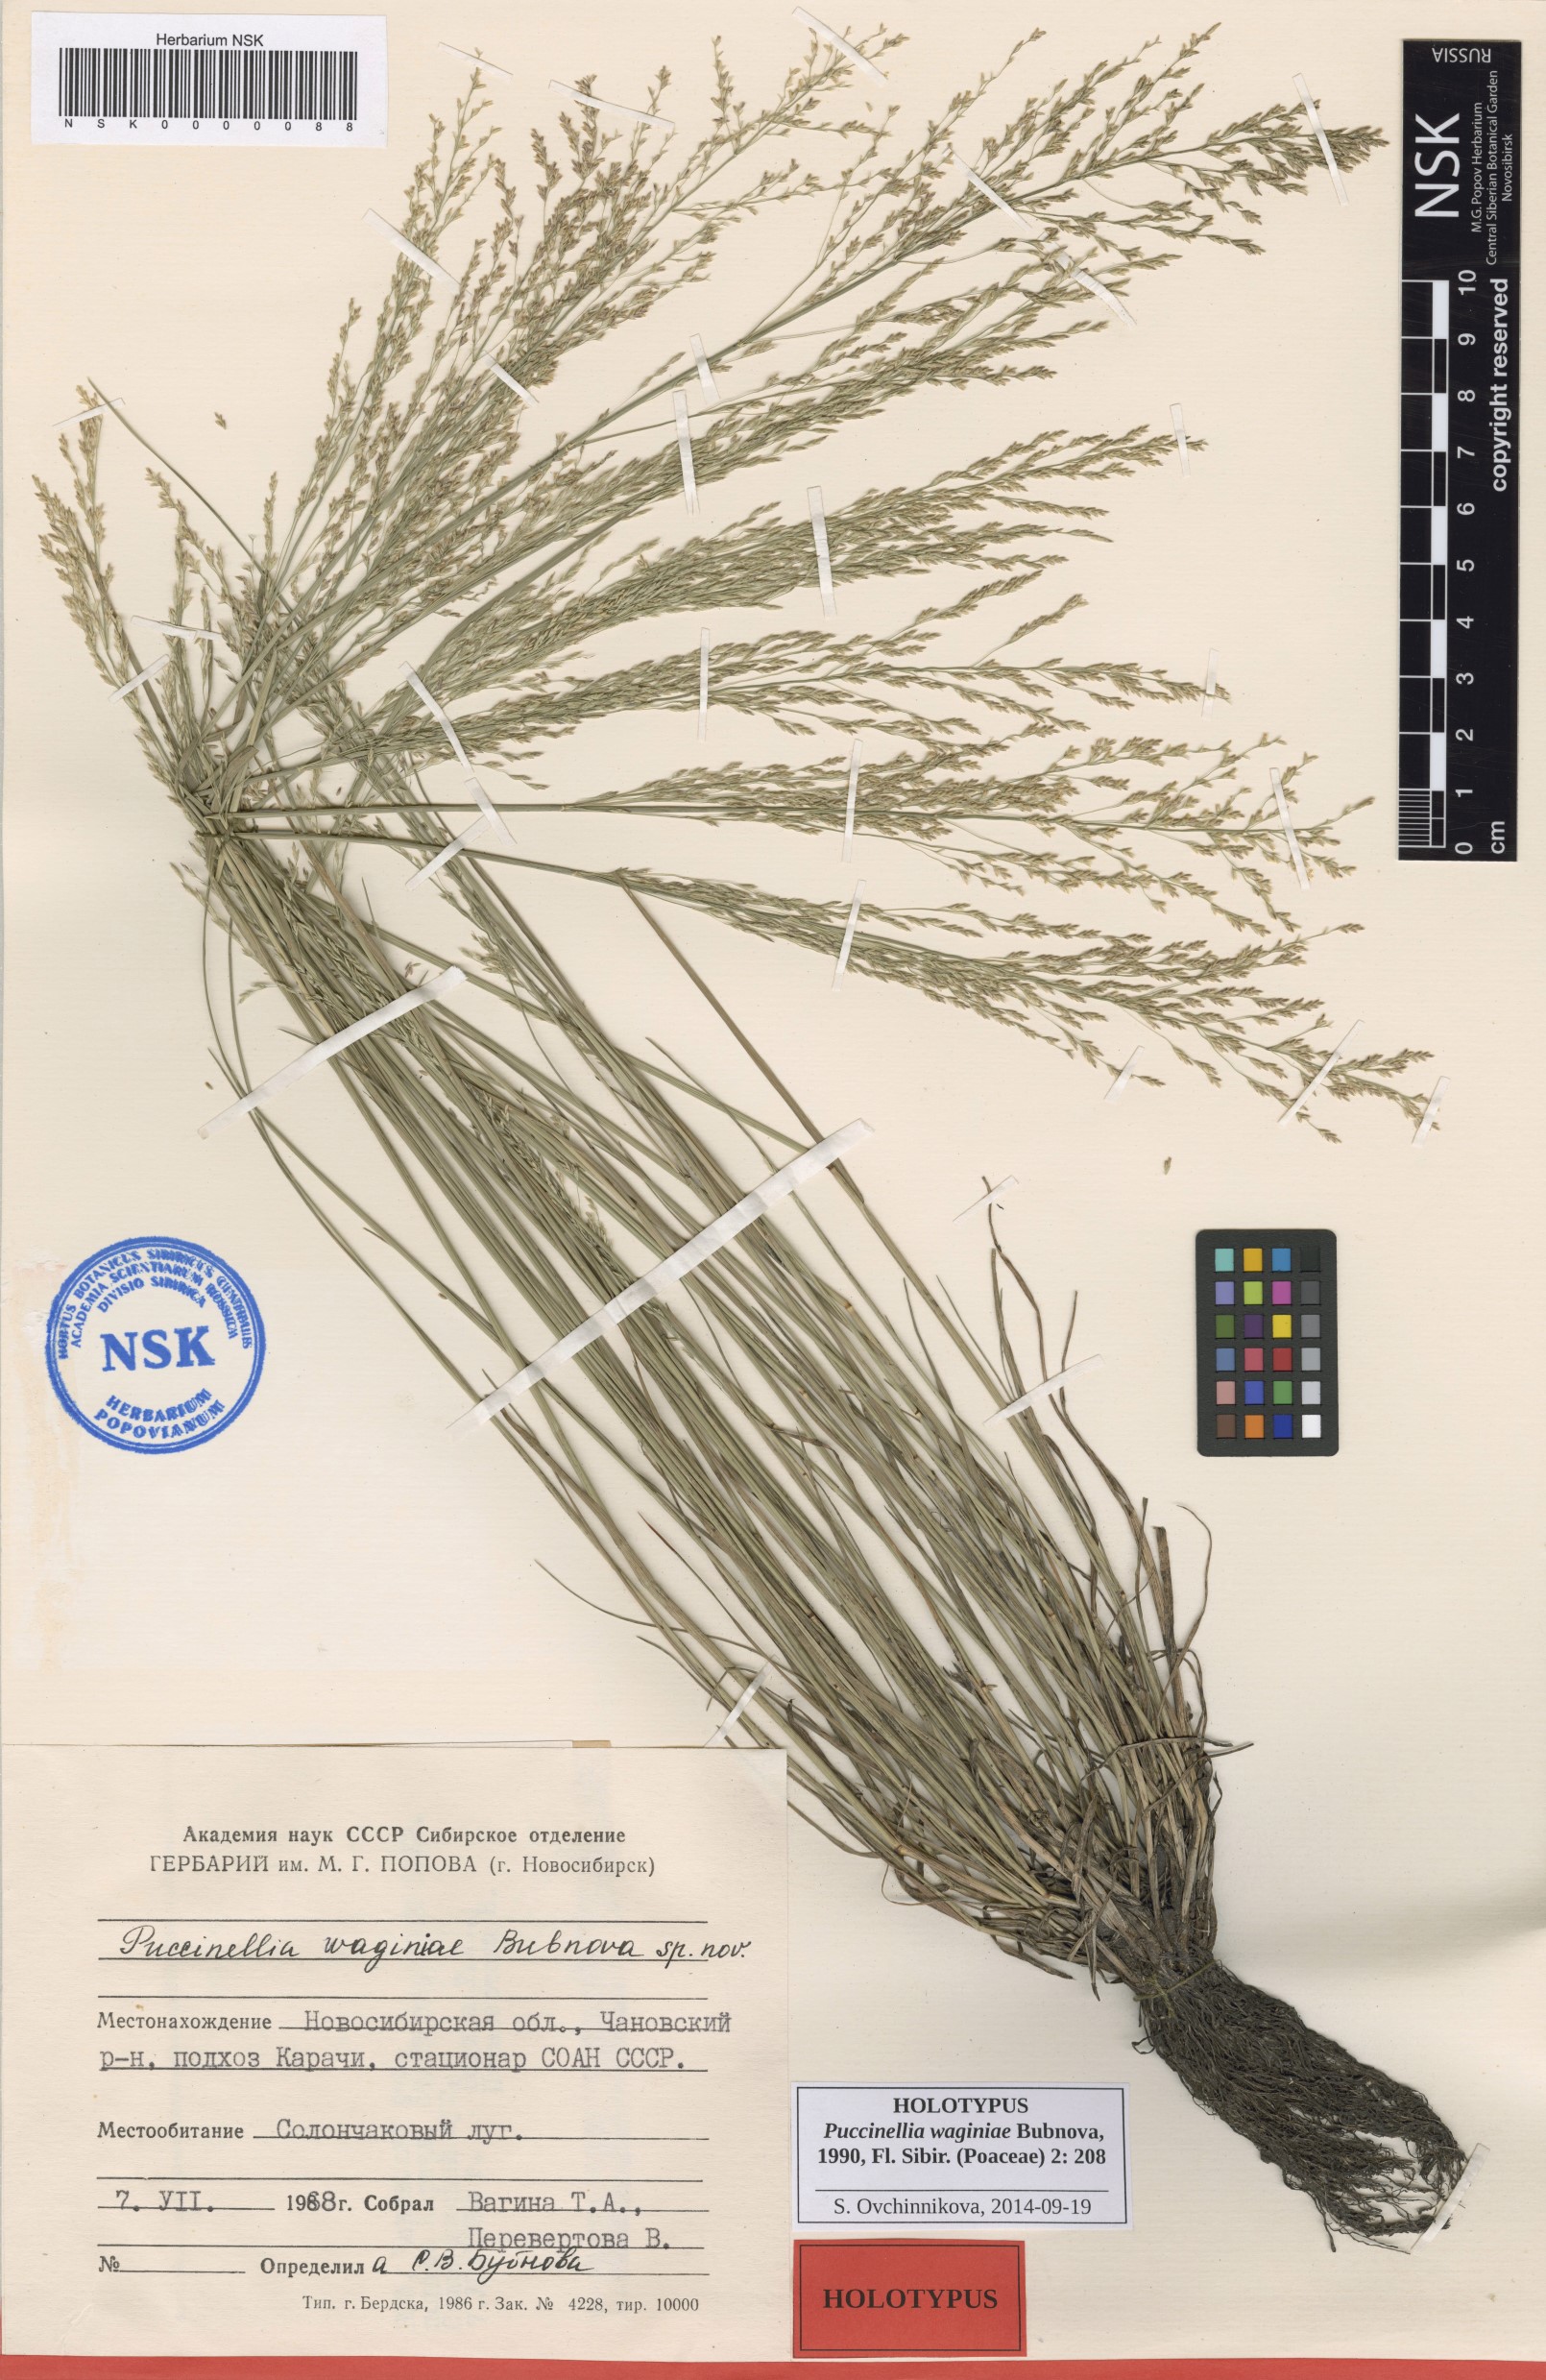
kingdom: Plantae
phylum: Tracheophyta
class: Liliopsida
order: Poales
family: Poaceae
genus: Puccinellia
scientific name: Puccinellia gigantea
